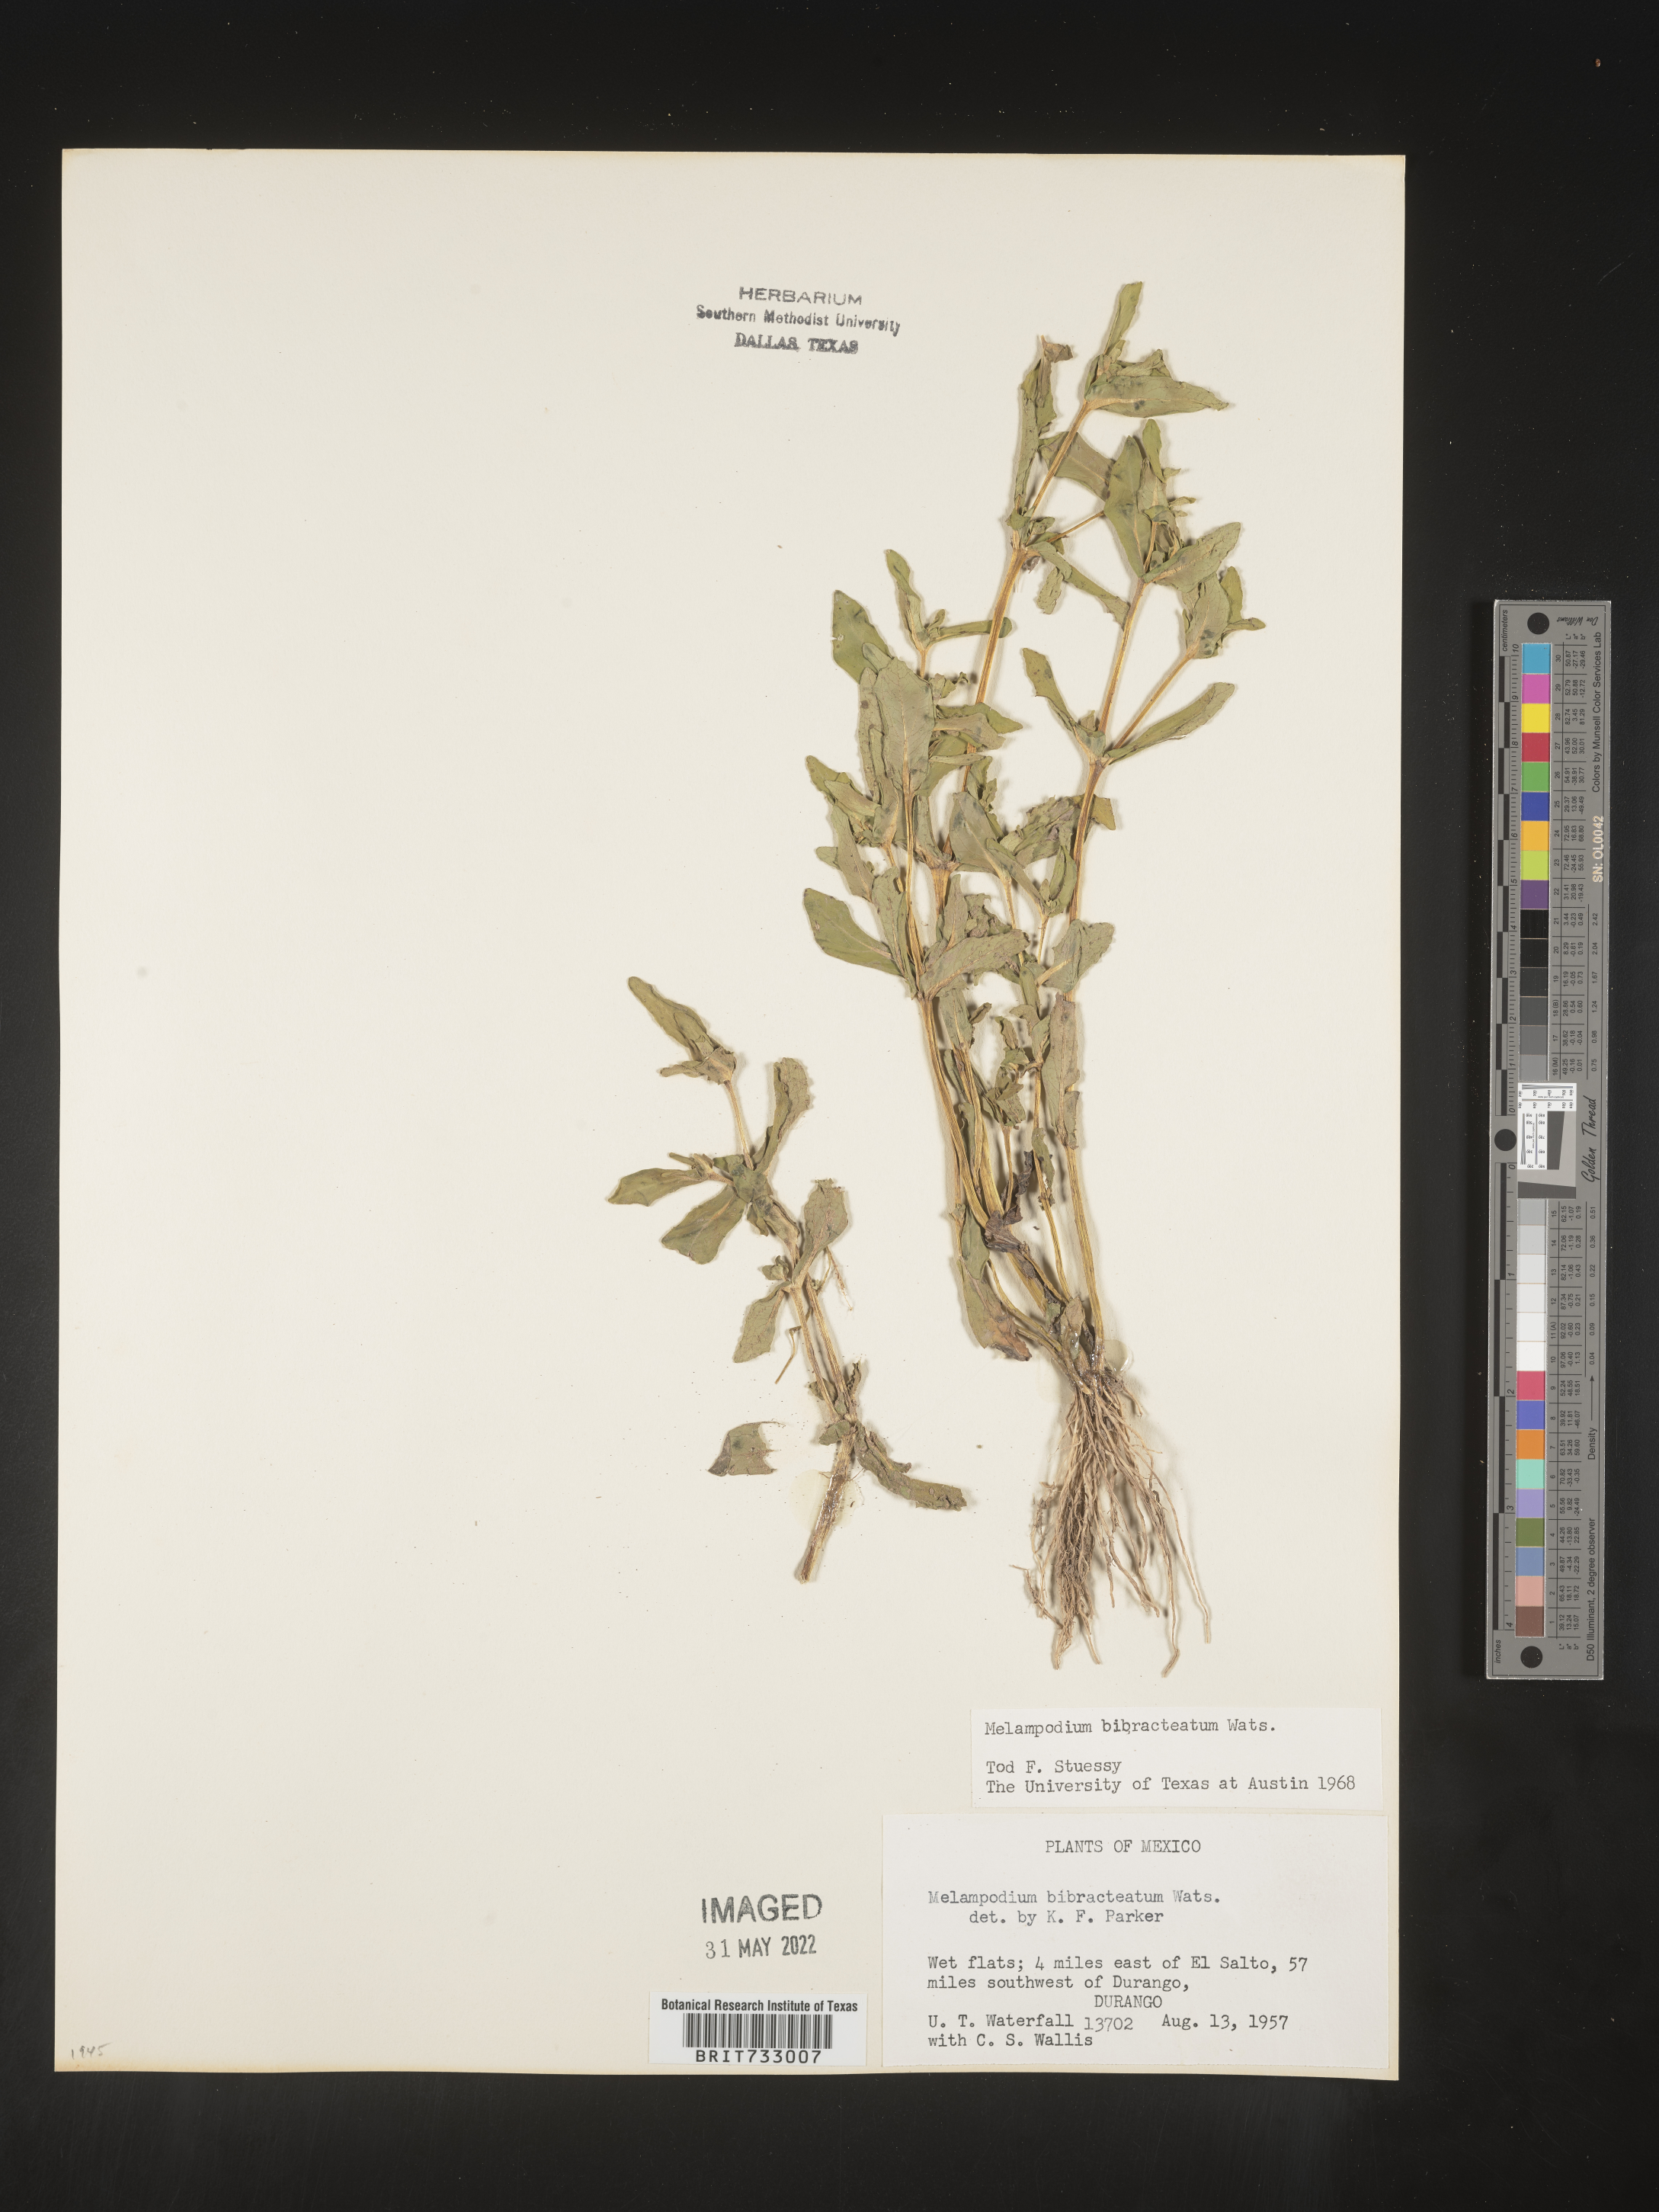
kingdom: Plantae
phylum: Tracheophyta
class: Magnoliopsida
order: Asterales
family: Asteraceae
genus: Melampodium
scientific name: Melampodium
